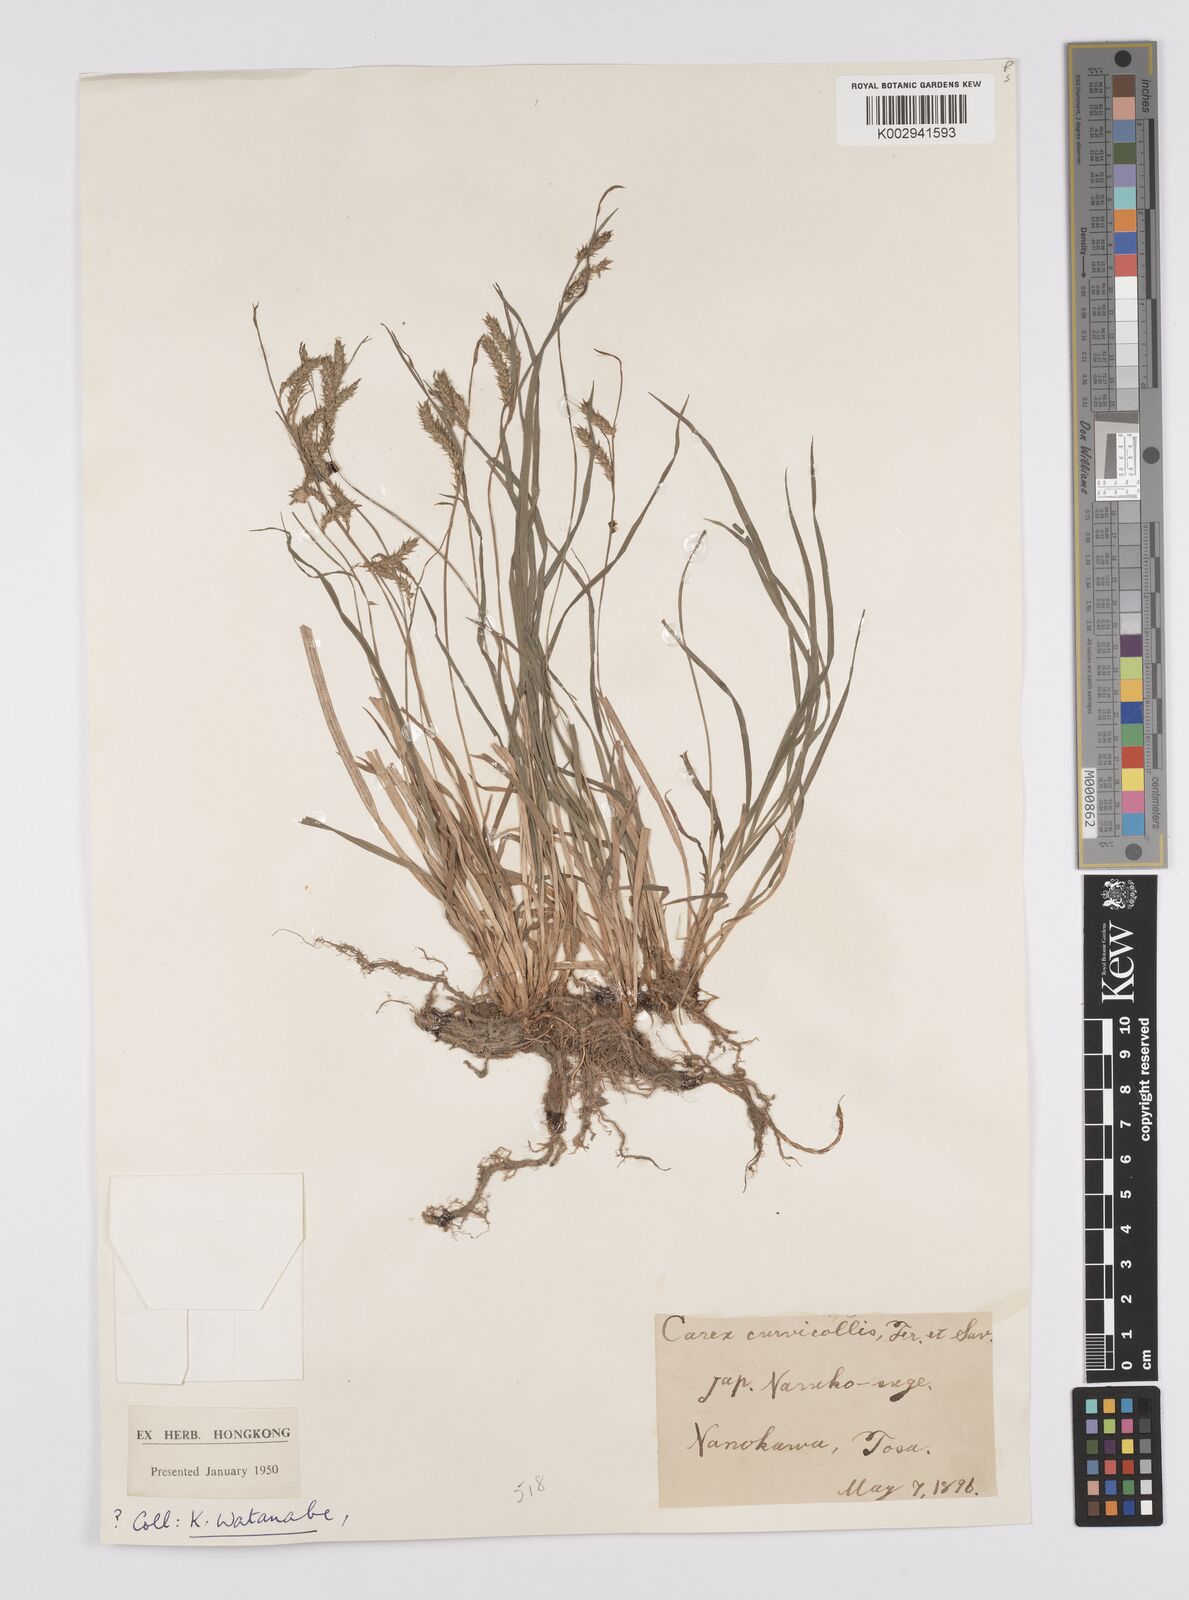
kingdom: Plantae
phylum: Tracheophyta
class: Liliopsida
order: Poales
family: Cyperaceae
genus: Carex
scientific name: Carex curvicollis
